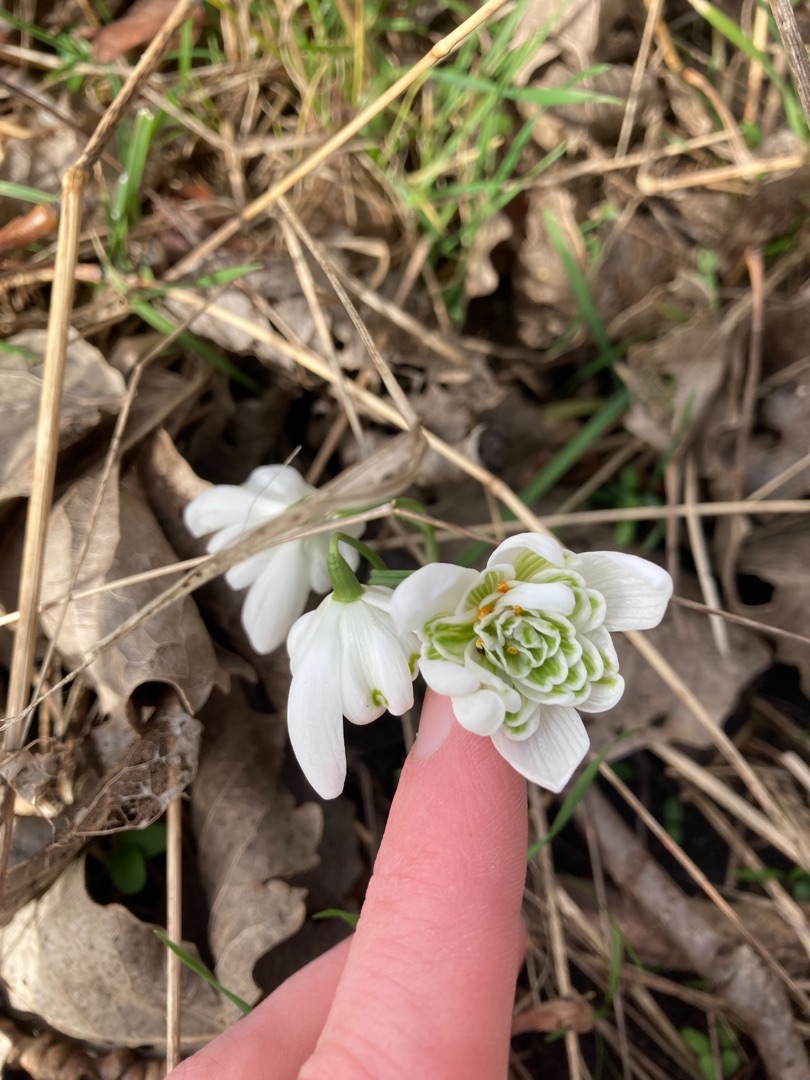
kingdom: Plantae
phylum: Tracheophyta
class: Liliopsida
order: Asparagales
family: Amaryllidaceae
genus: Galanthus
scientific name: Galanthus nivalis
